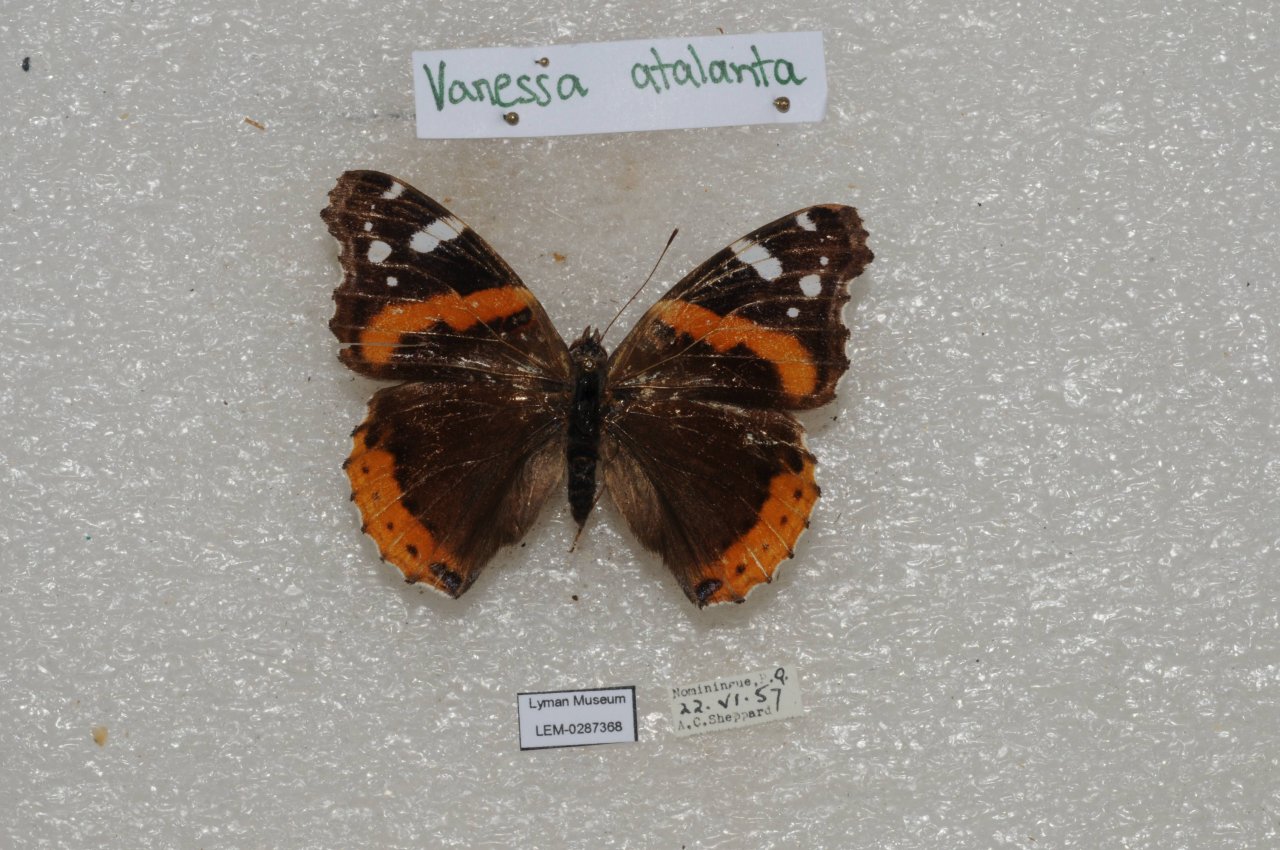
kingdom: Animalia
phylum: Arthropoda
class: Insecta
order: Lepidoptera
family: Nymphalidae
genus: Vanessa
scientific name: Vanessa atalanta
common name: Red Admiral
